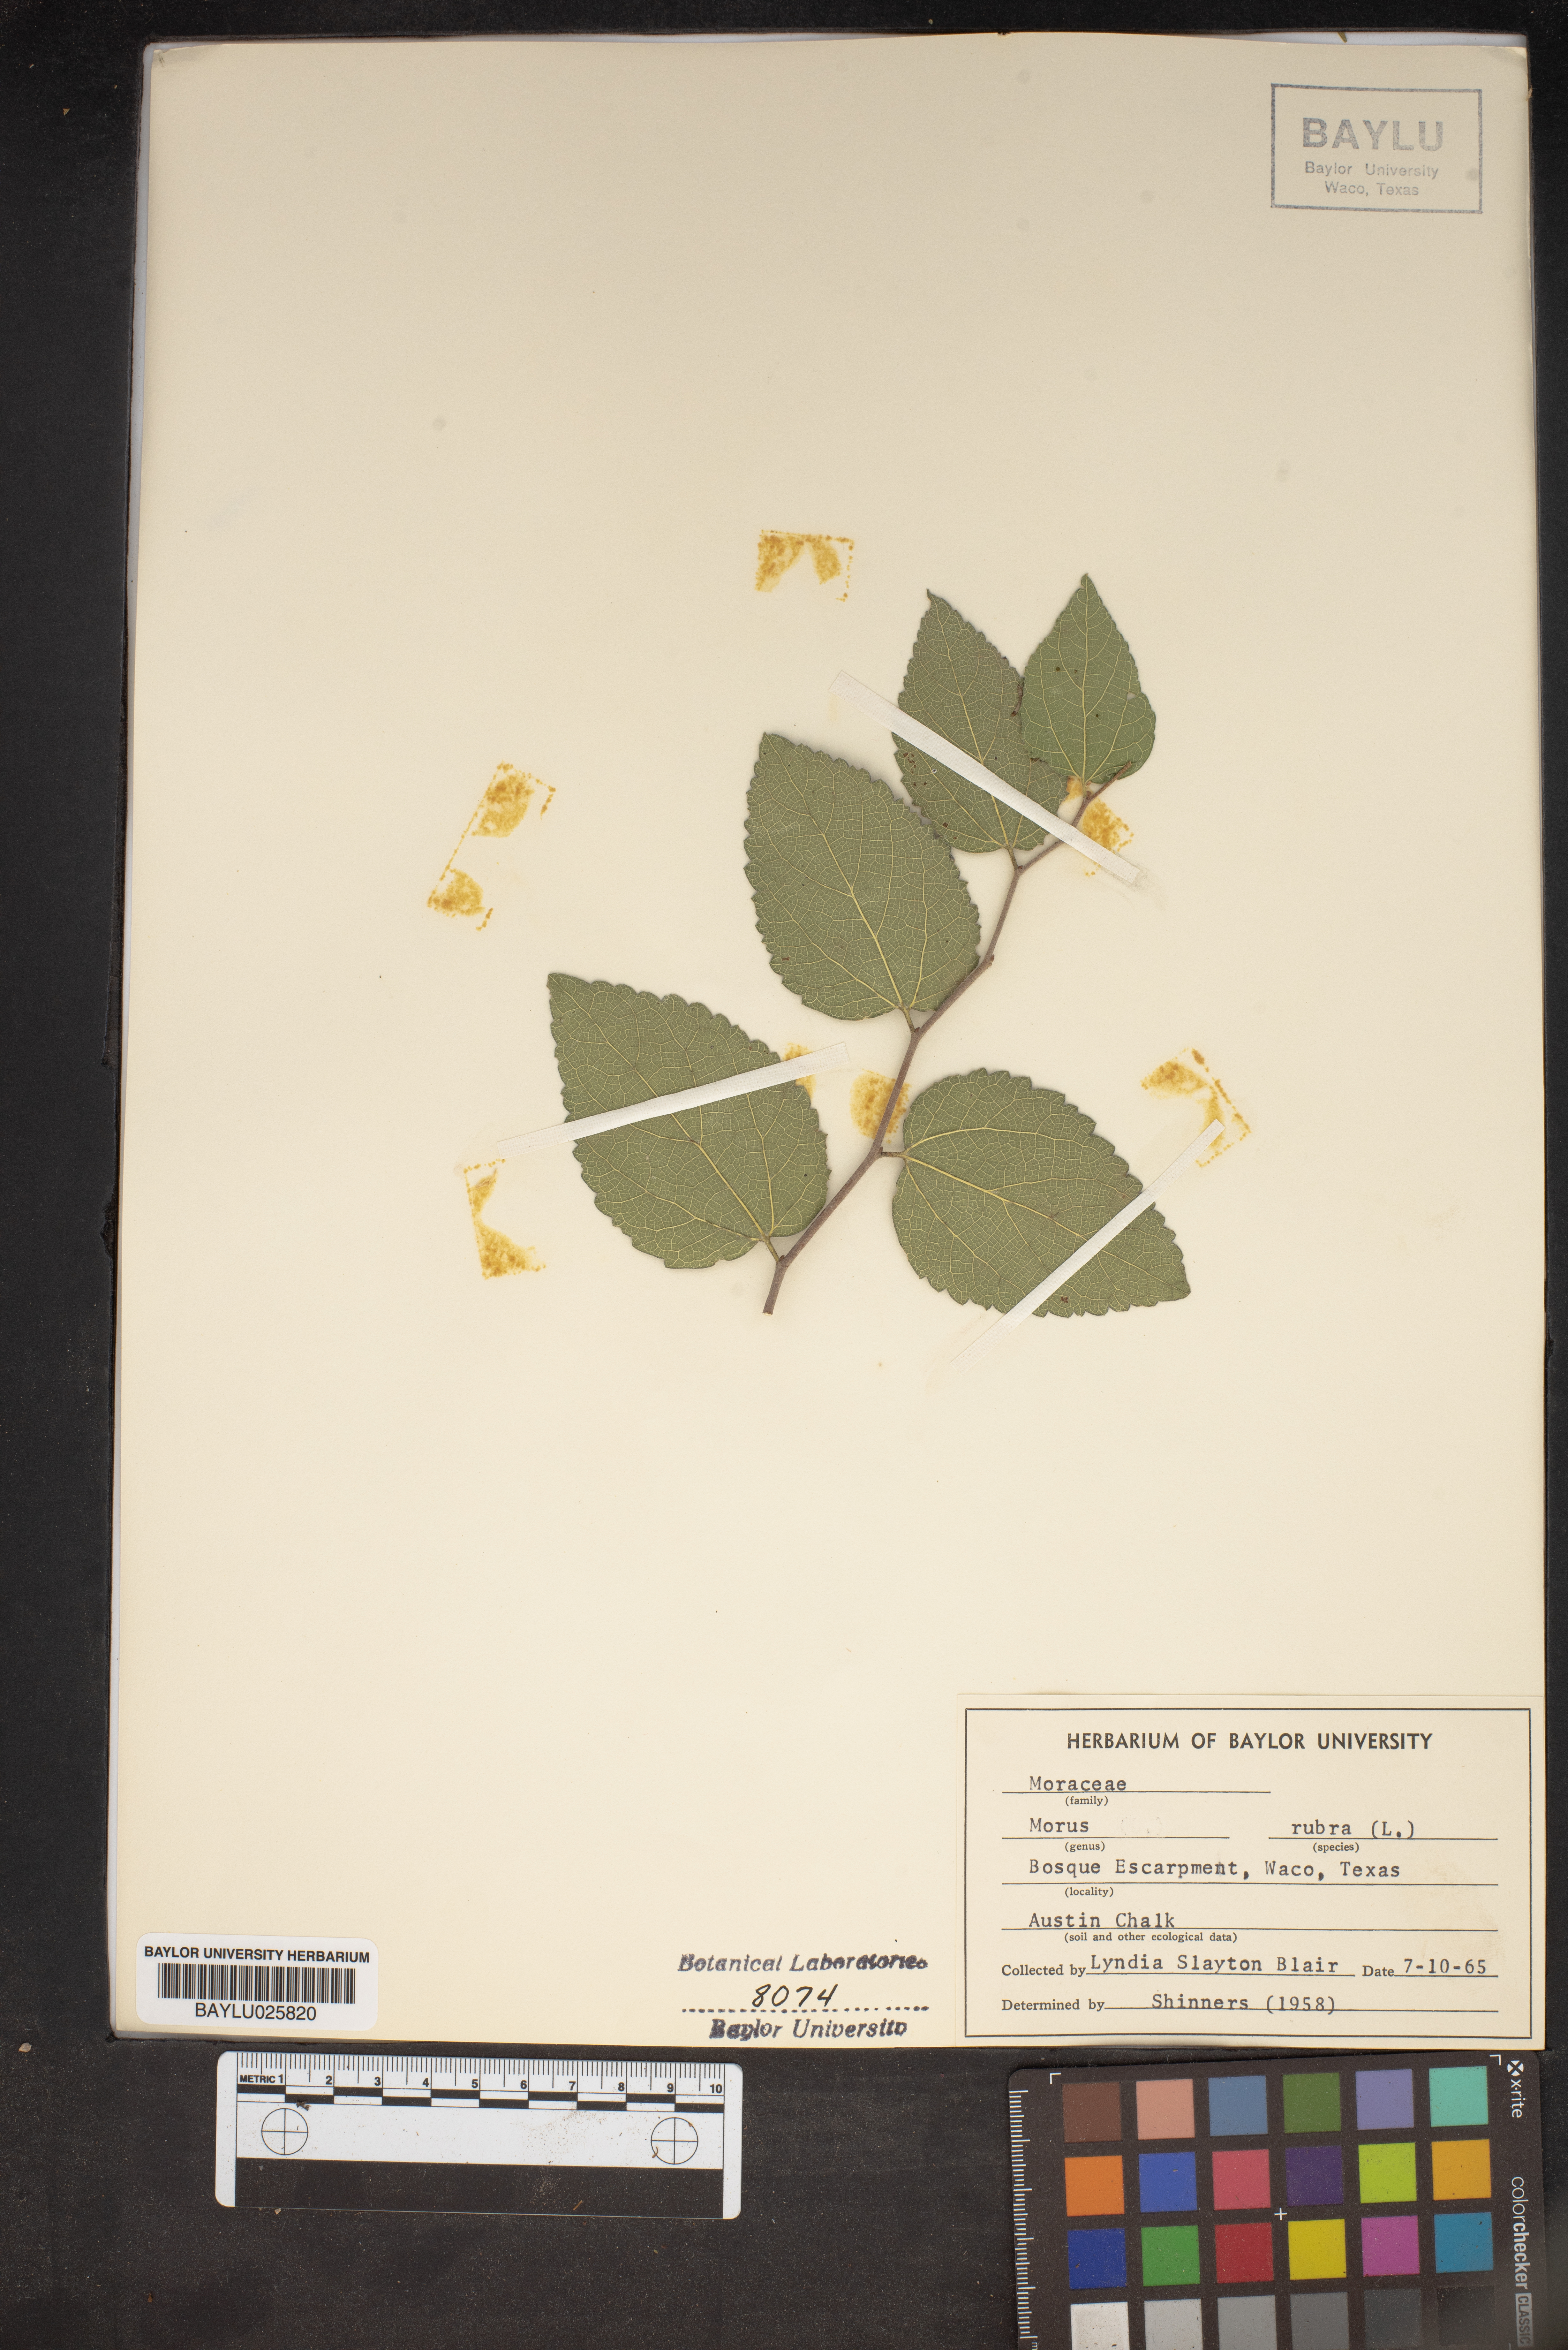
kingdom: Plantae
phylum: Tracheophyta
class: Magnoliopsida
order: Rosales
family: Moraceae
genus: Morus
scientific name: Morus rubra
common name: Red mulberry
